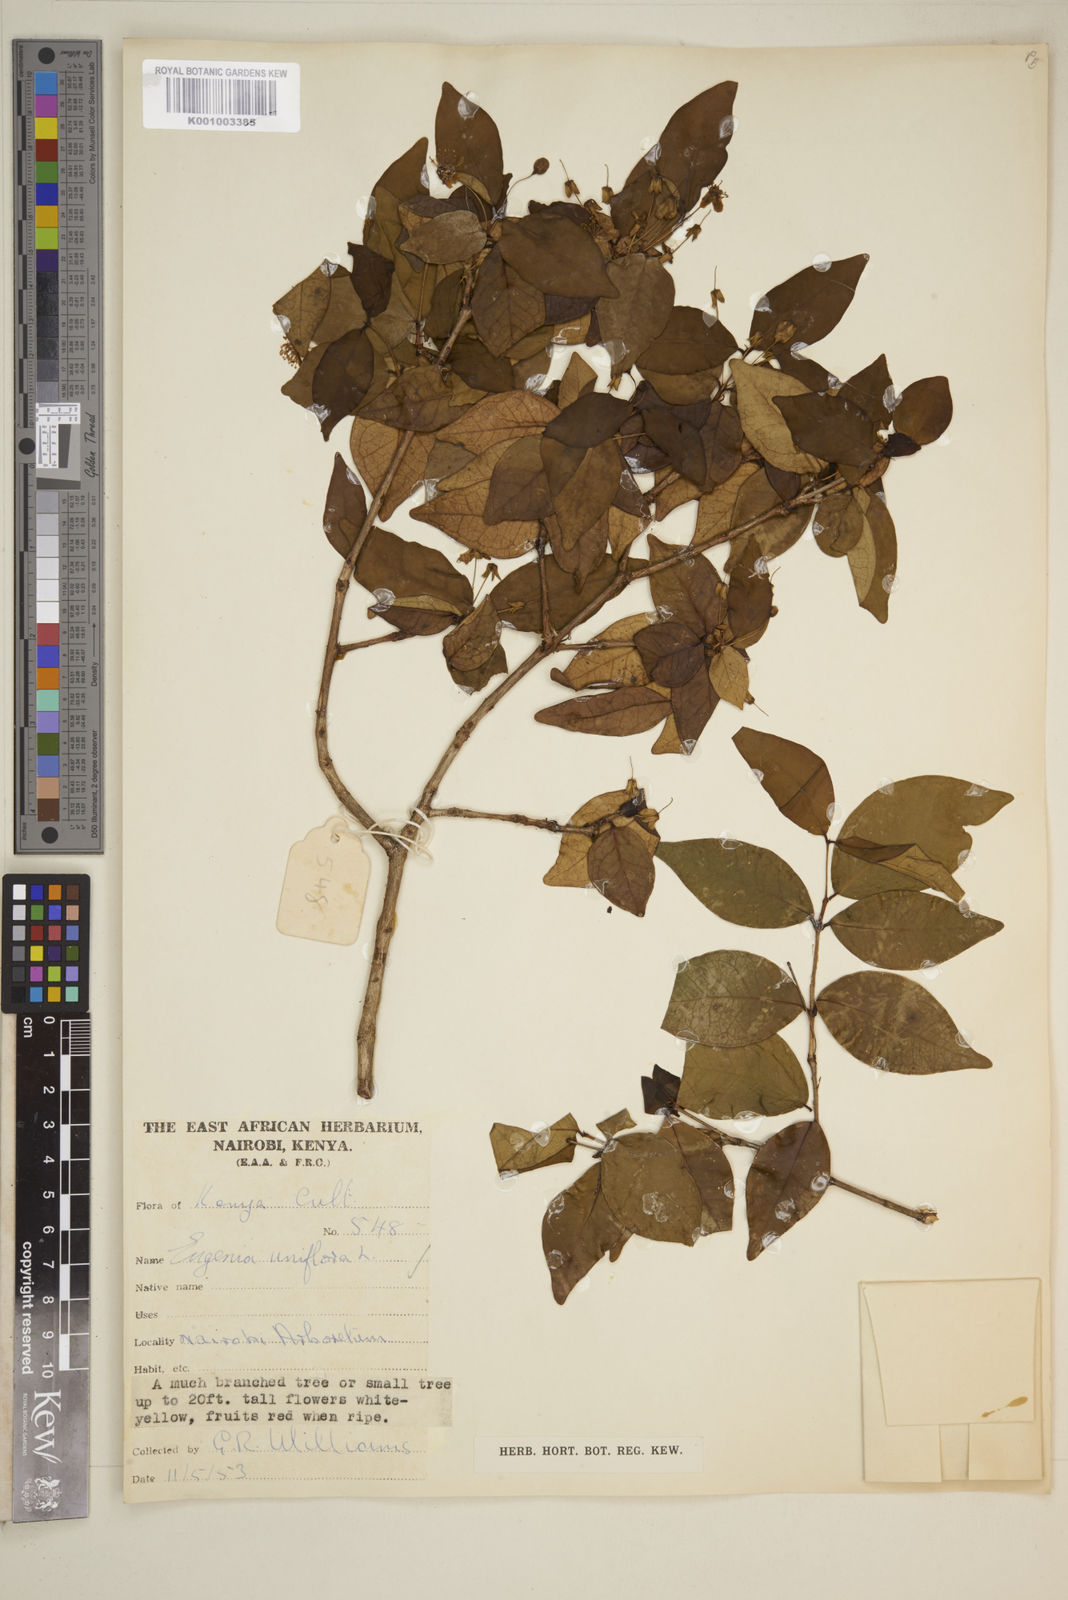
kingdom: Plantae
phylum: Tracheophyta
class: Magnoliopsida
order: Myrtales
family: Myrtaceae
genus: Eugenia
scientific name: Eugenia uniflora
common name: Surinam cherry
